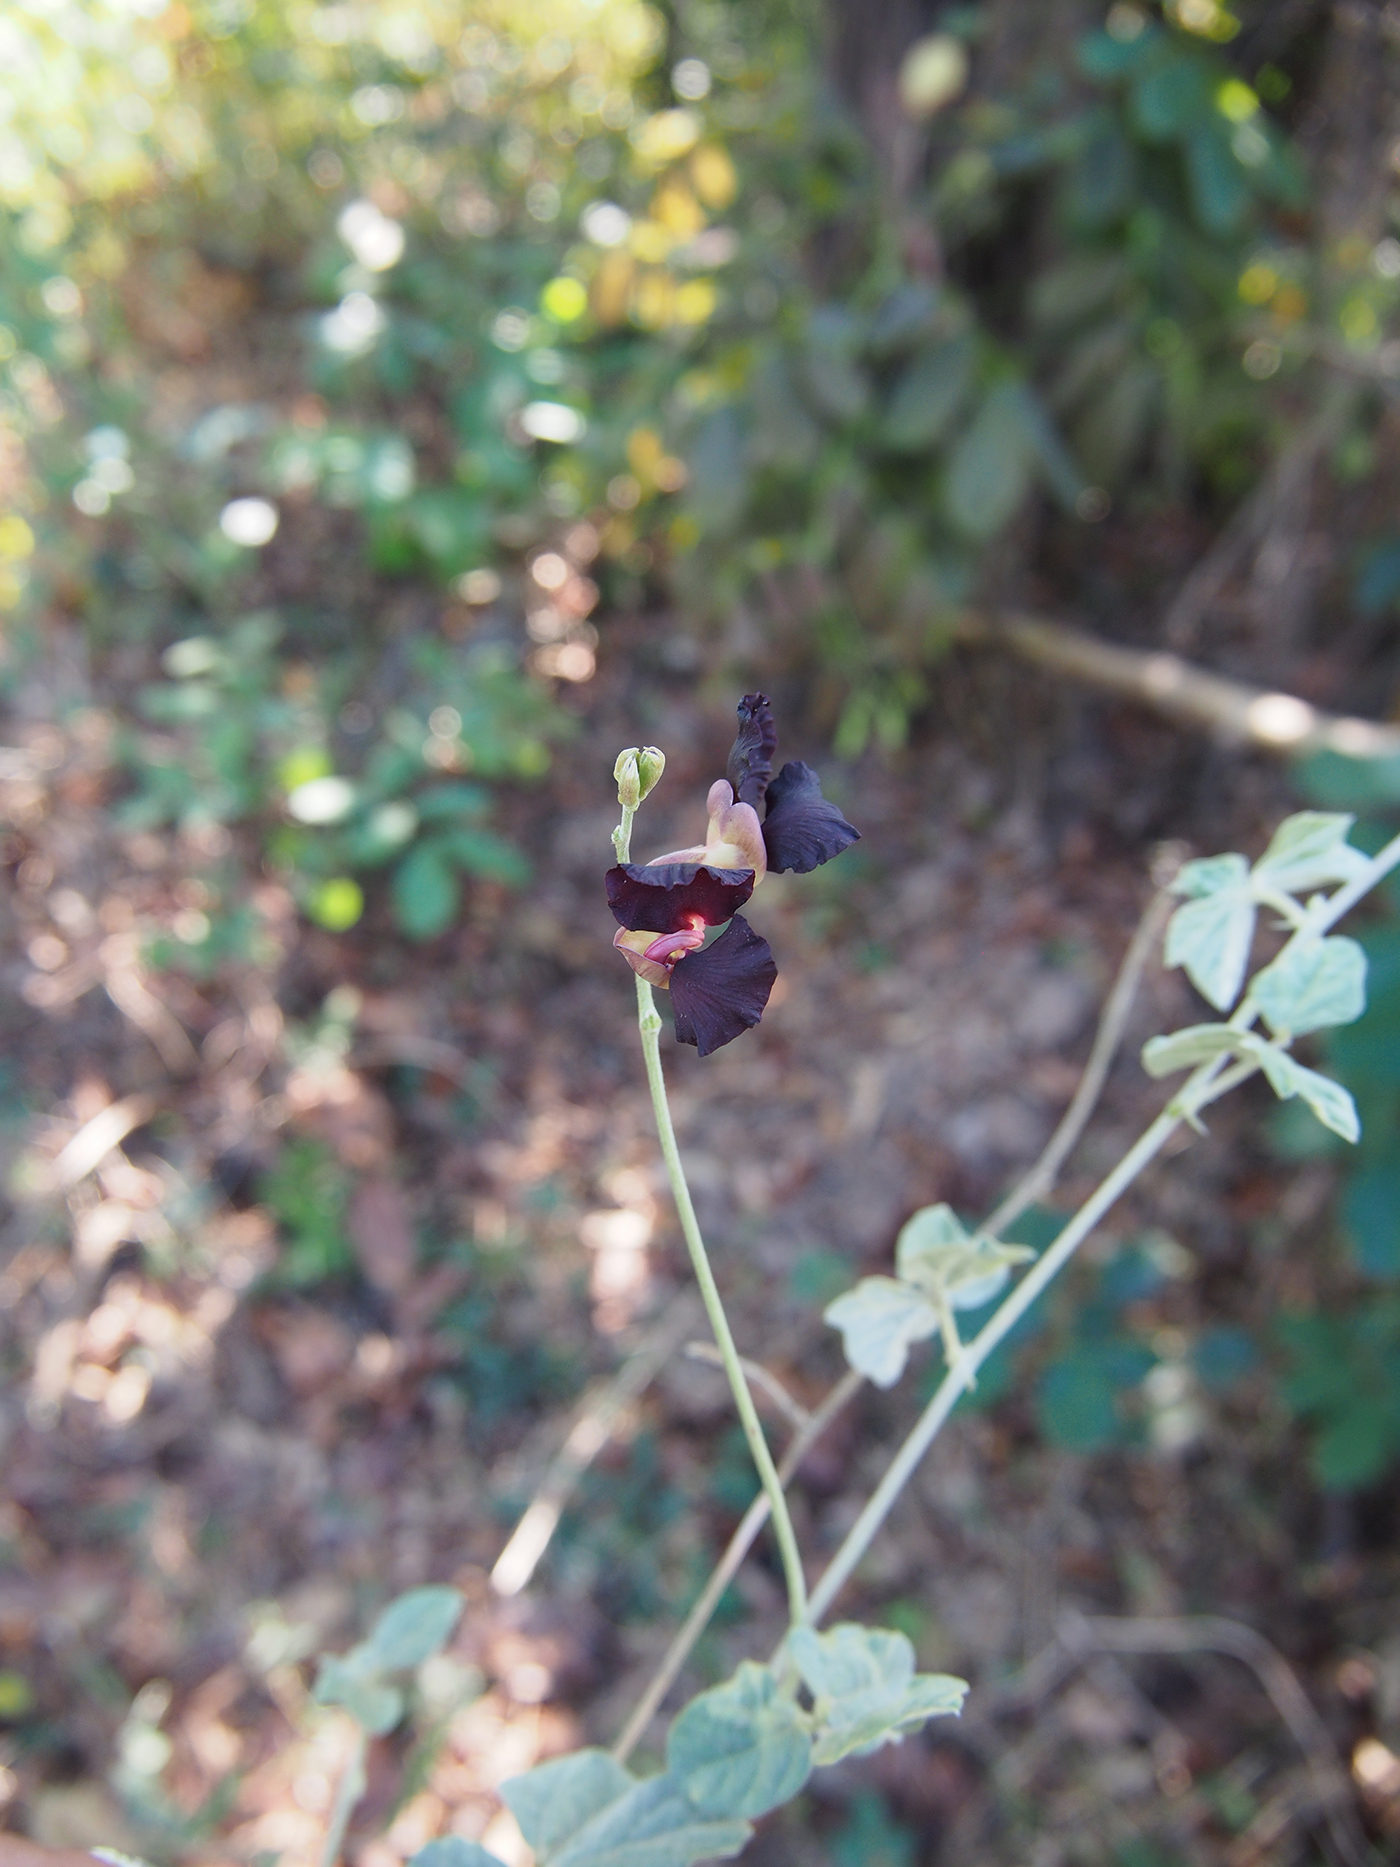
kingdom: Plantae
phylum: Tracheophyta
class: Magnoliopsida
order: Fabales
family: Fabaceae
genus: Macroptilium
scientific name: Macroptilium atropurpureum
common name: Purple bushbean
